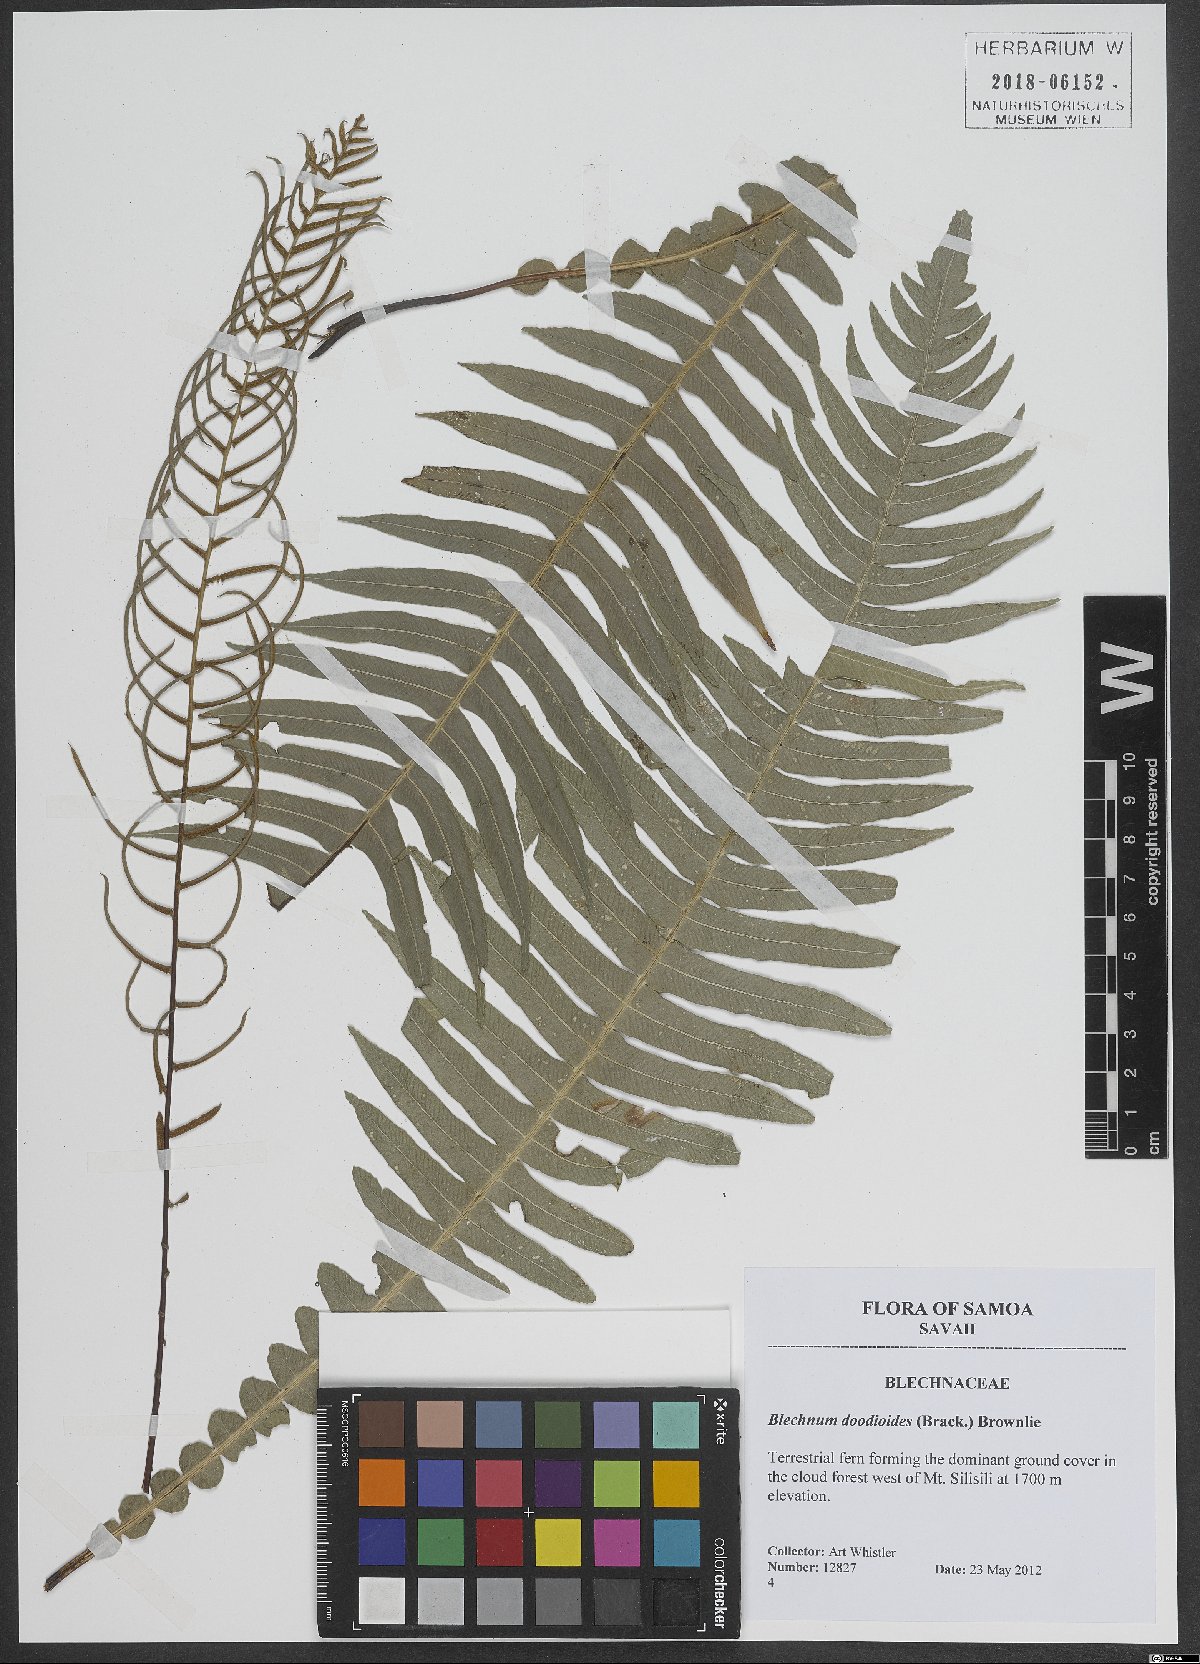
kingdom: Plantae
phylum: Tracheophyta
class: Polypodiopsida
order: Polypodiales
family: Blechnaceae
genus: Austroblechnum
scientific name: Austroblechnum lanceolatum
